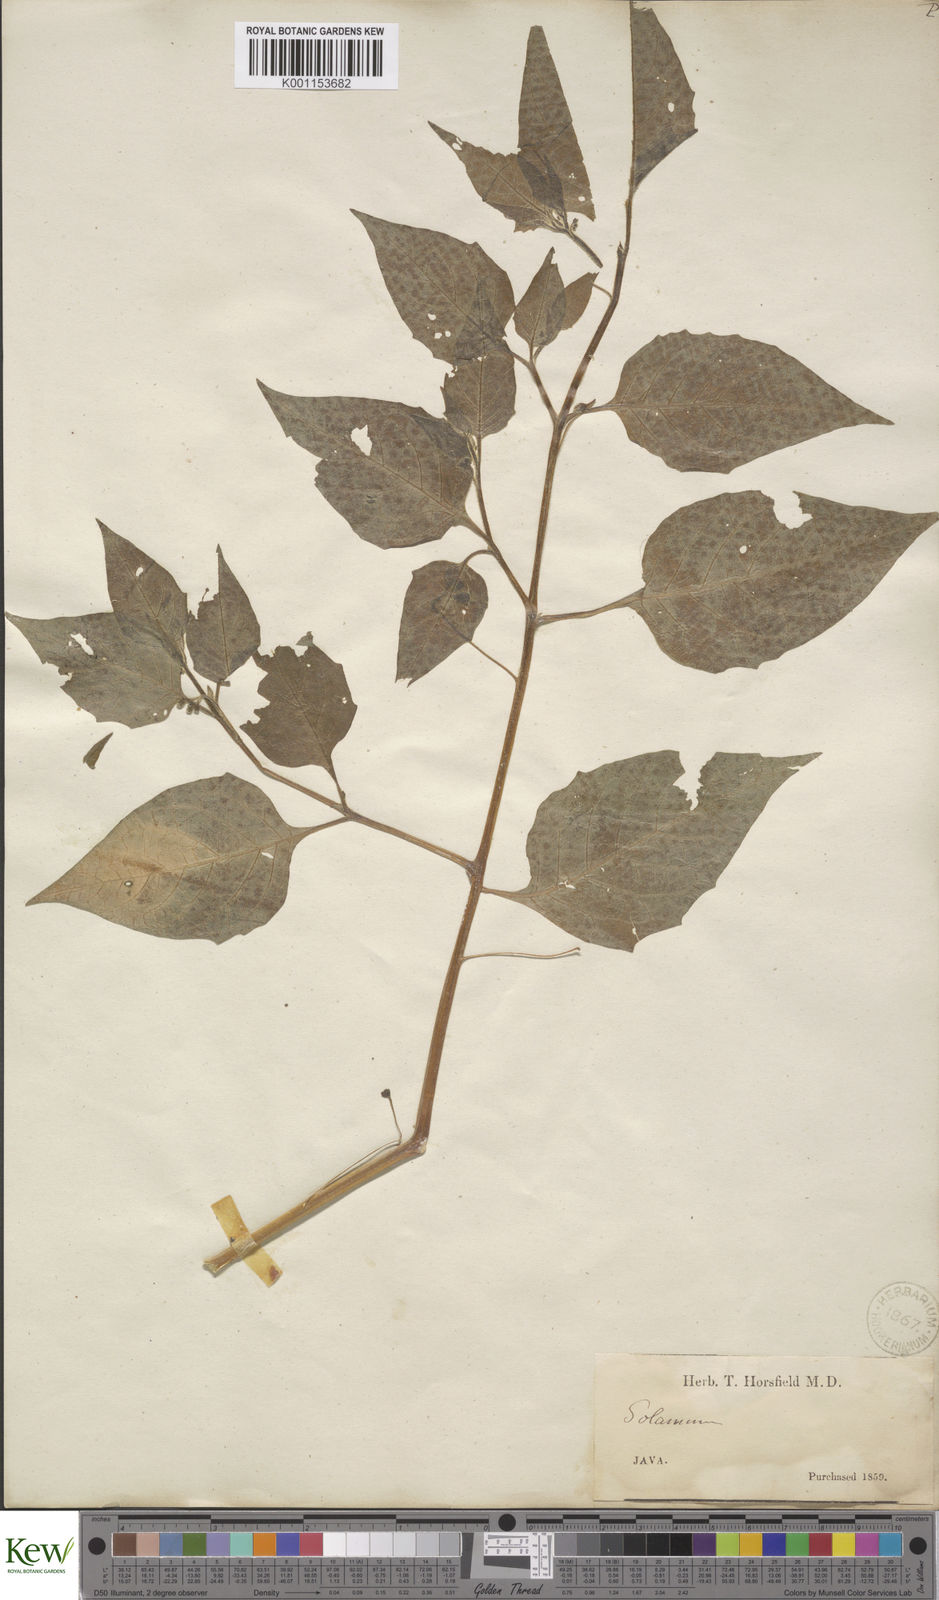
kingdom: Plantae
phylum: Tracheophyta
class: Magnoliopsida
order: Solanales
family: Solanaceae
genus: Solanum
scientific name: Solanum
